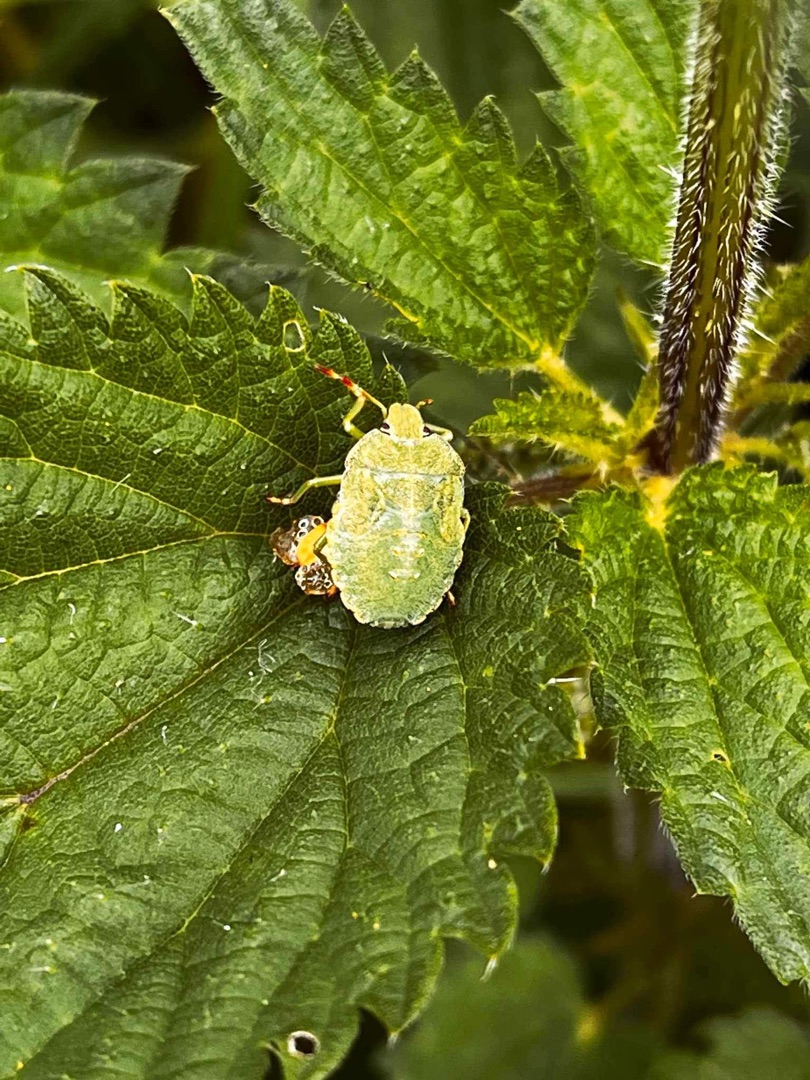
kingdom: Animalia
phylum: Arthropoda
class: Insecta
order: Hemiptera
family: Pentatomidae
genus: Palomena
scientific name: Palomena prasina
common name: Grøn bredtæge
